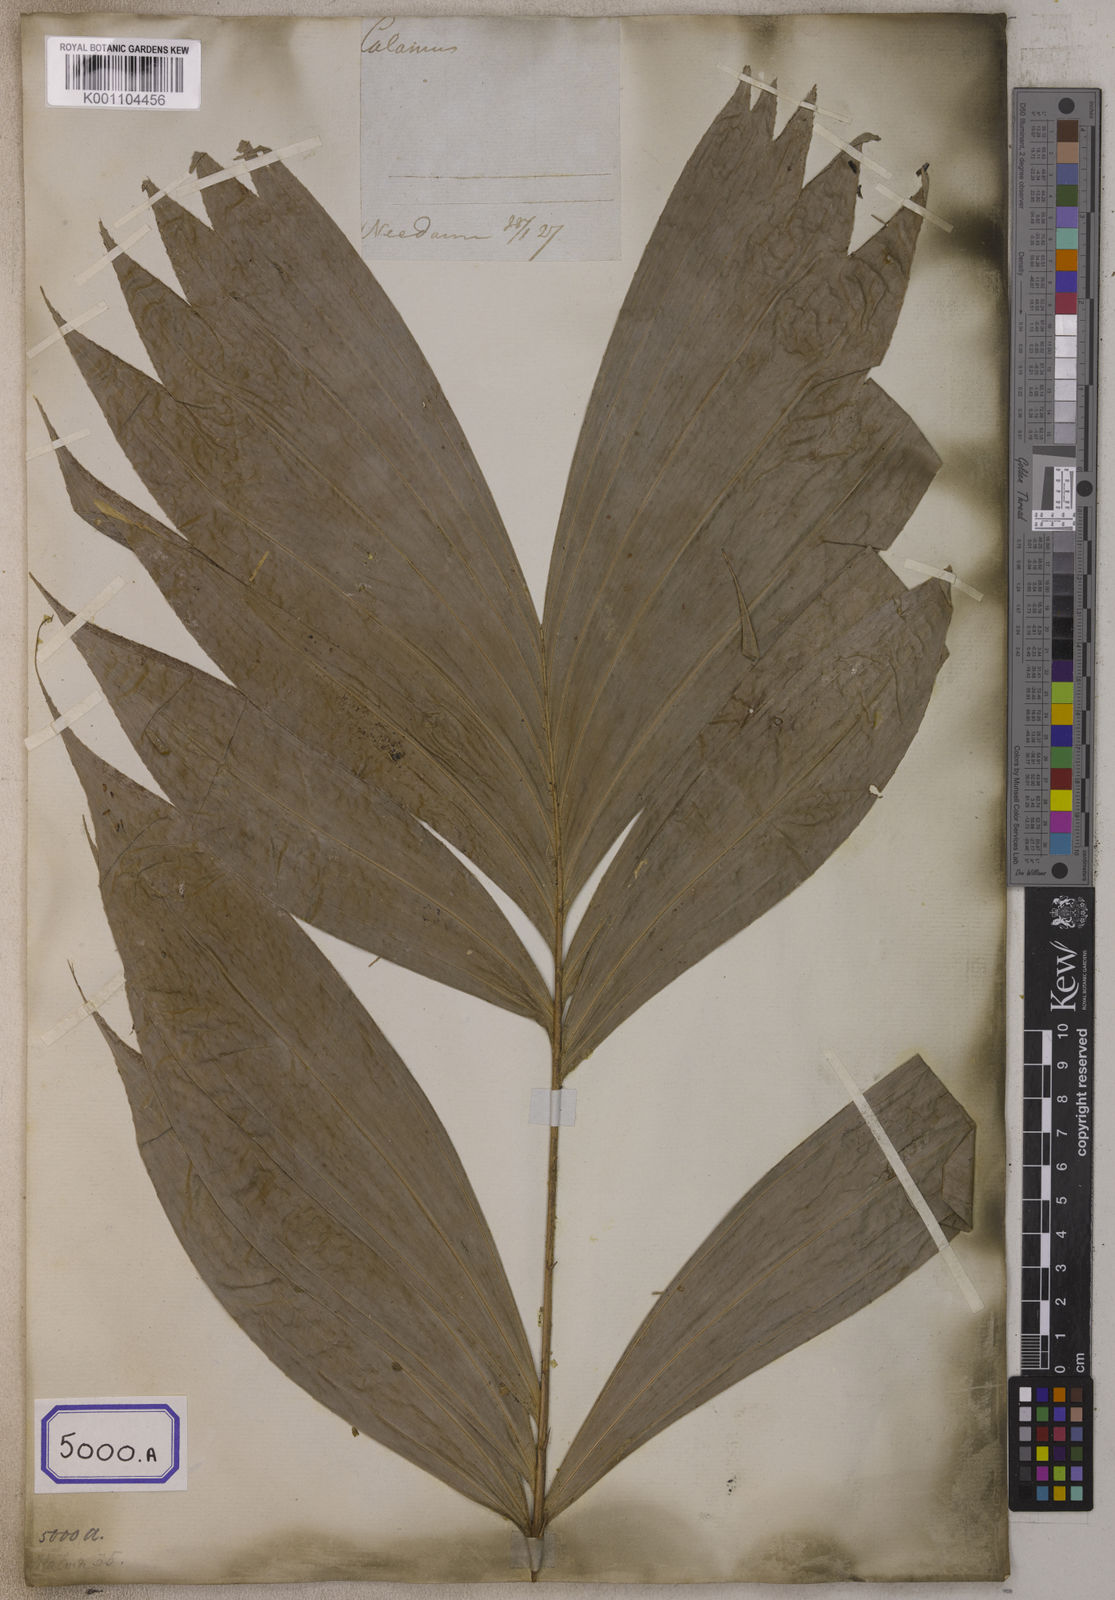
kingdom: Plantae
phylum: Tracheophyta
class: Liliopsida
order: Arecales
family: Arecaceae
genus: Salacca
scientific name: Salacca zalacca
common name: Salak
